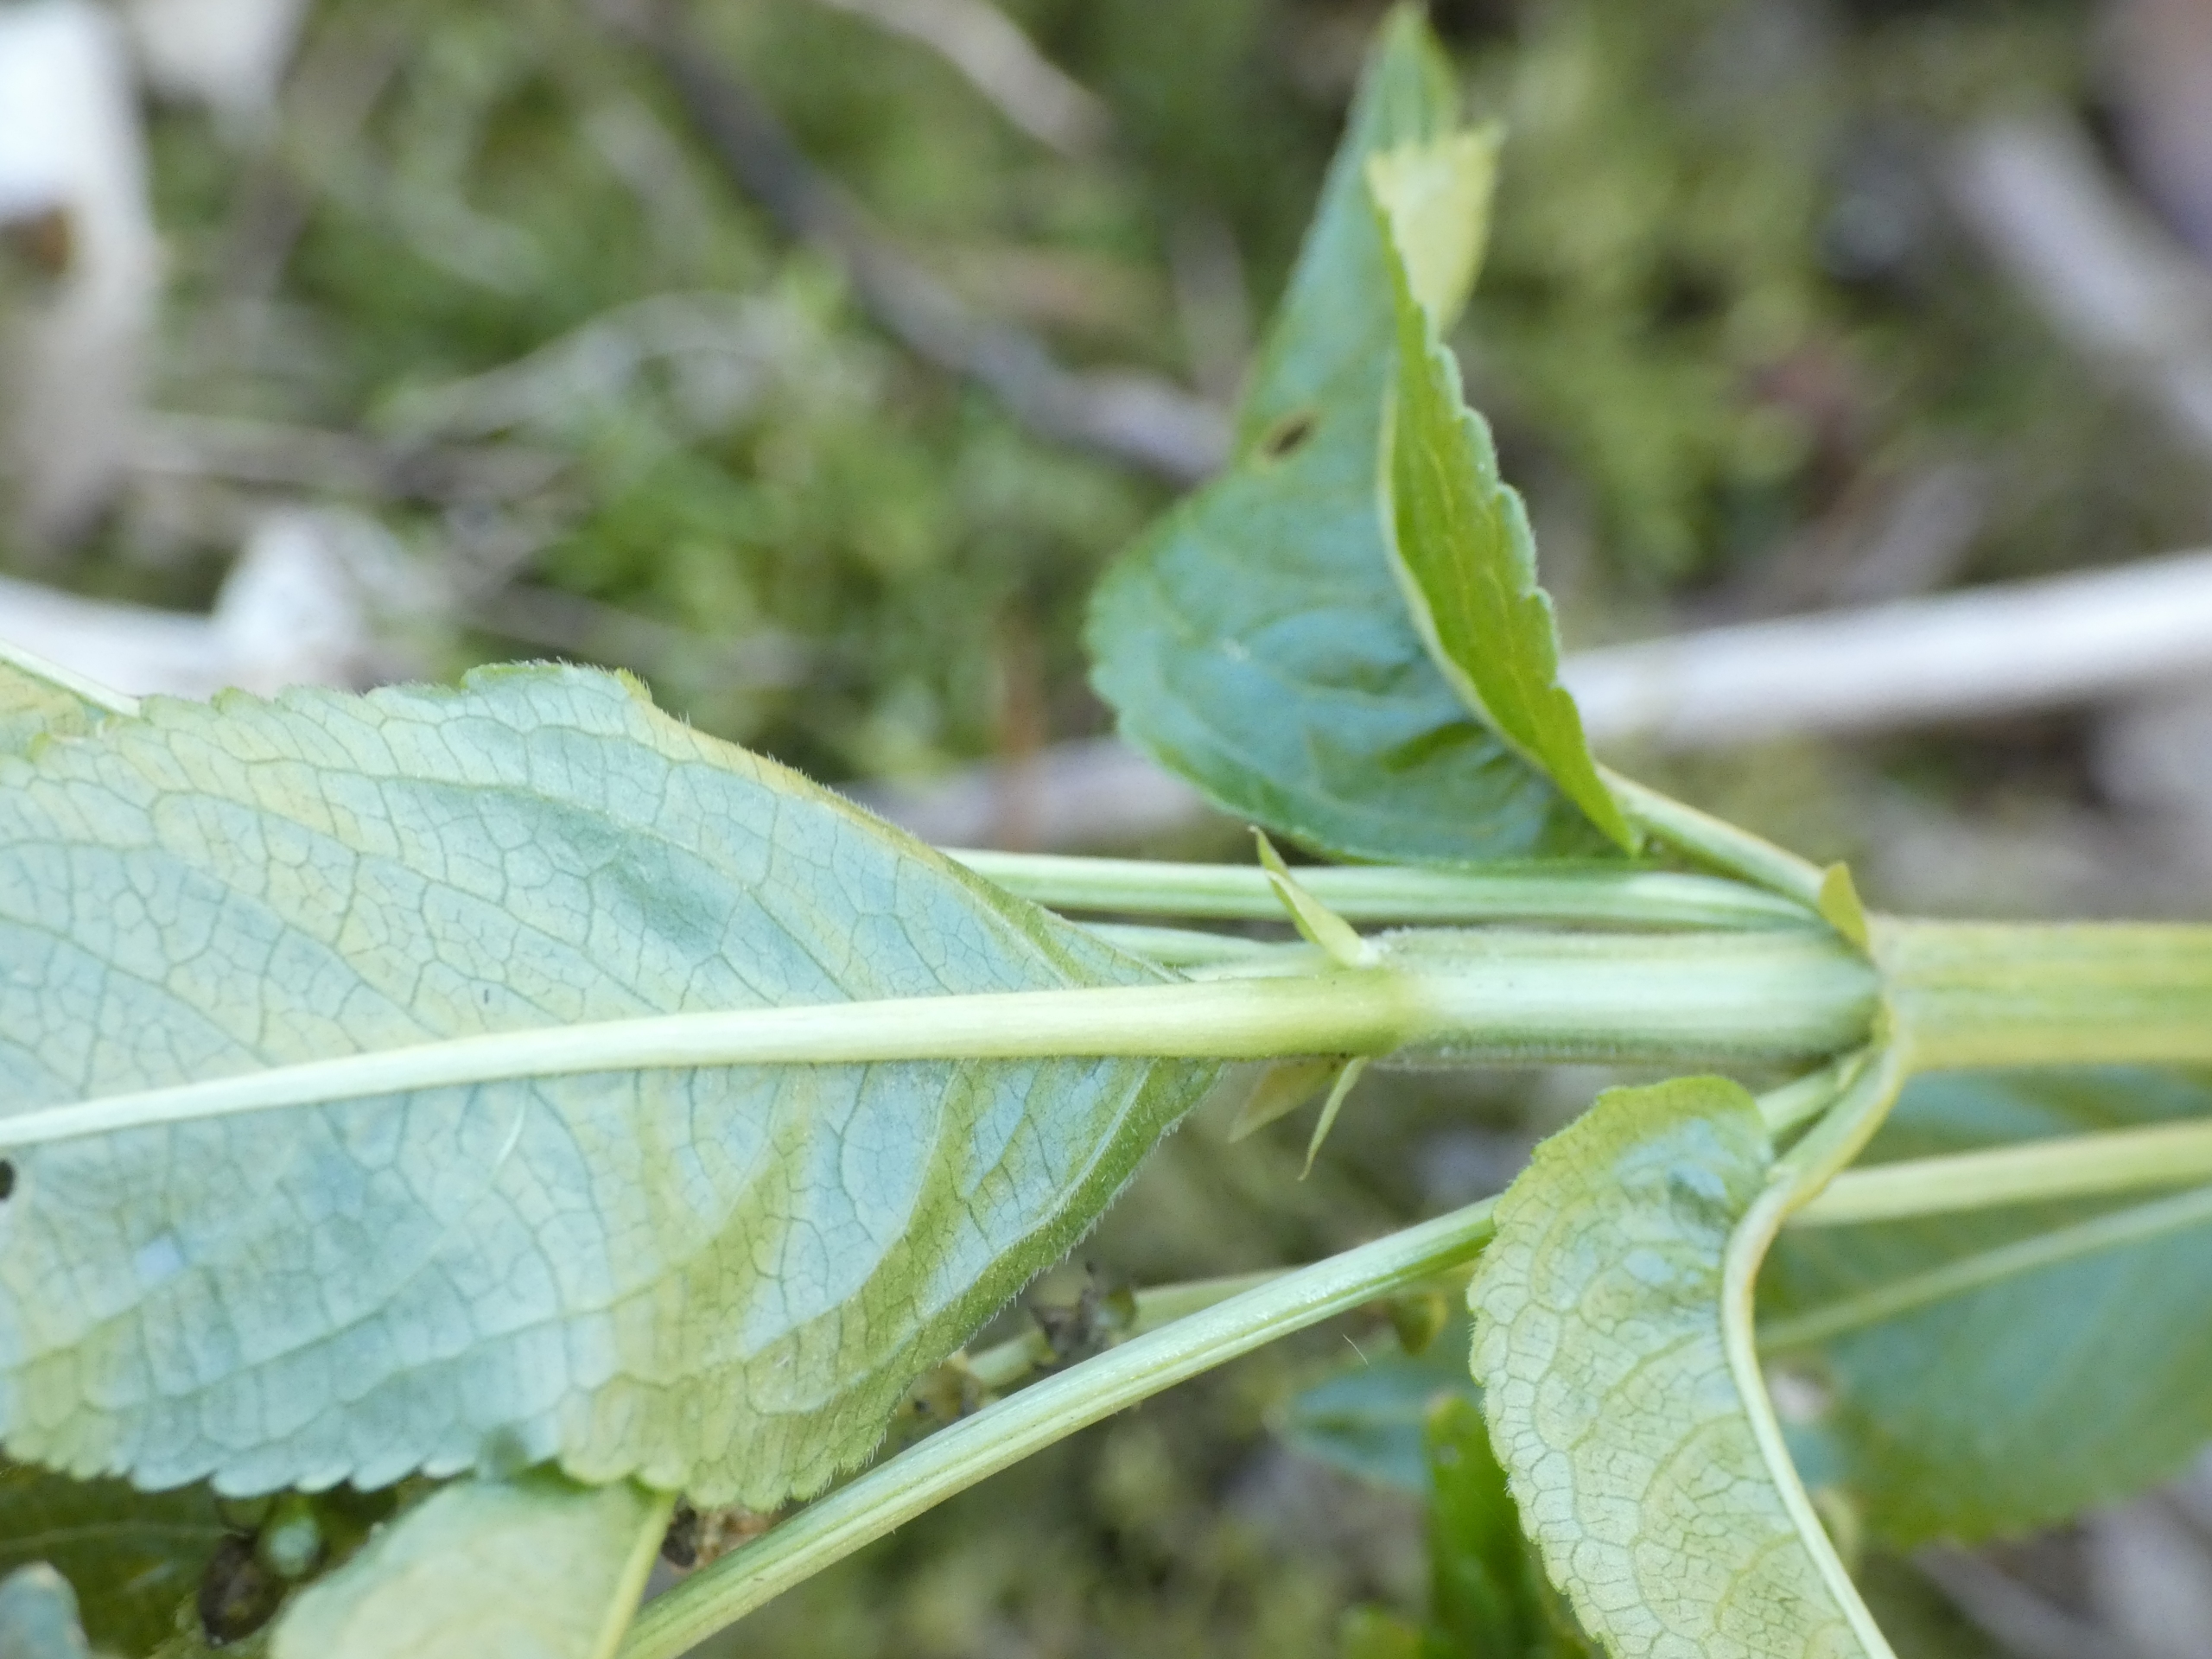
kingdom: Plantae
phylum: Tracheophyta
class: Magnoliopsida
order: Malpighiales
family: Euphorbiaceae
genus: Mercurialis
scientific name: Mercurialis perennis
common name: Almindelig bingelurt
